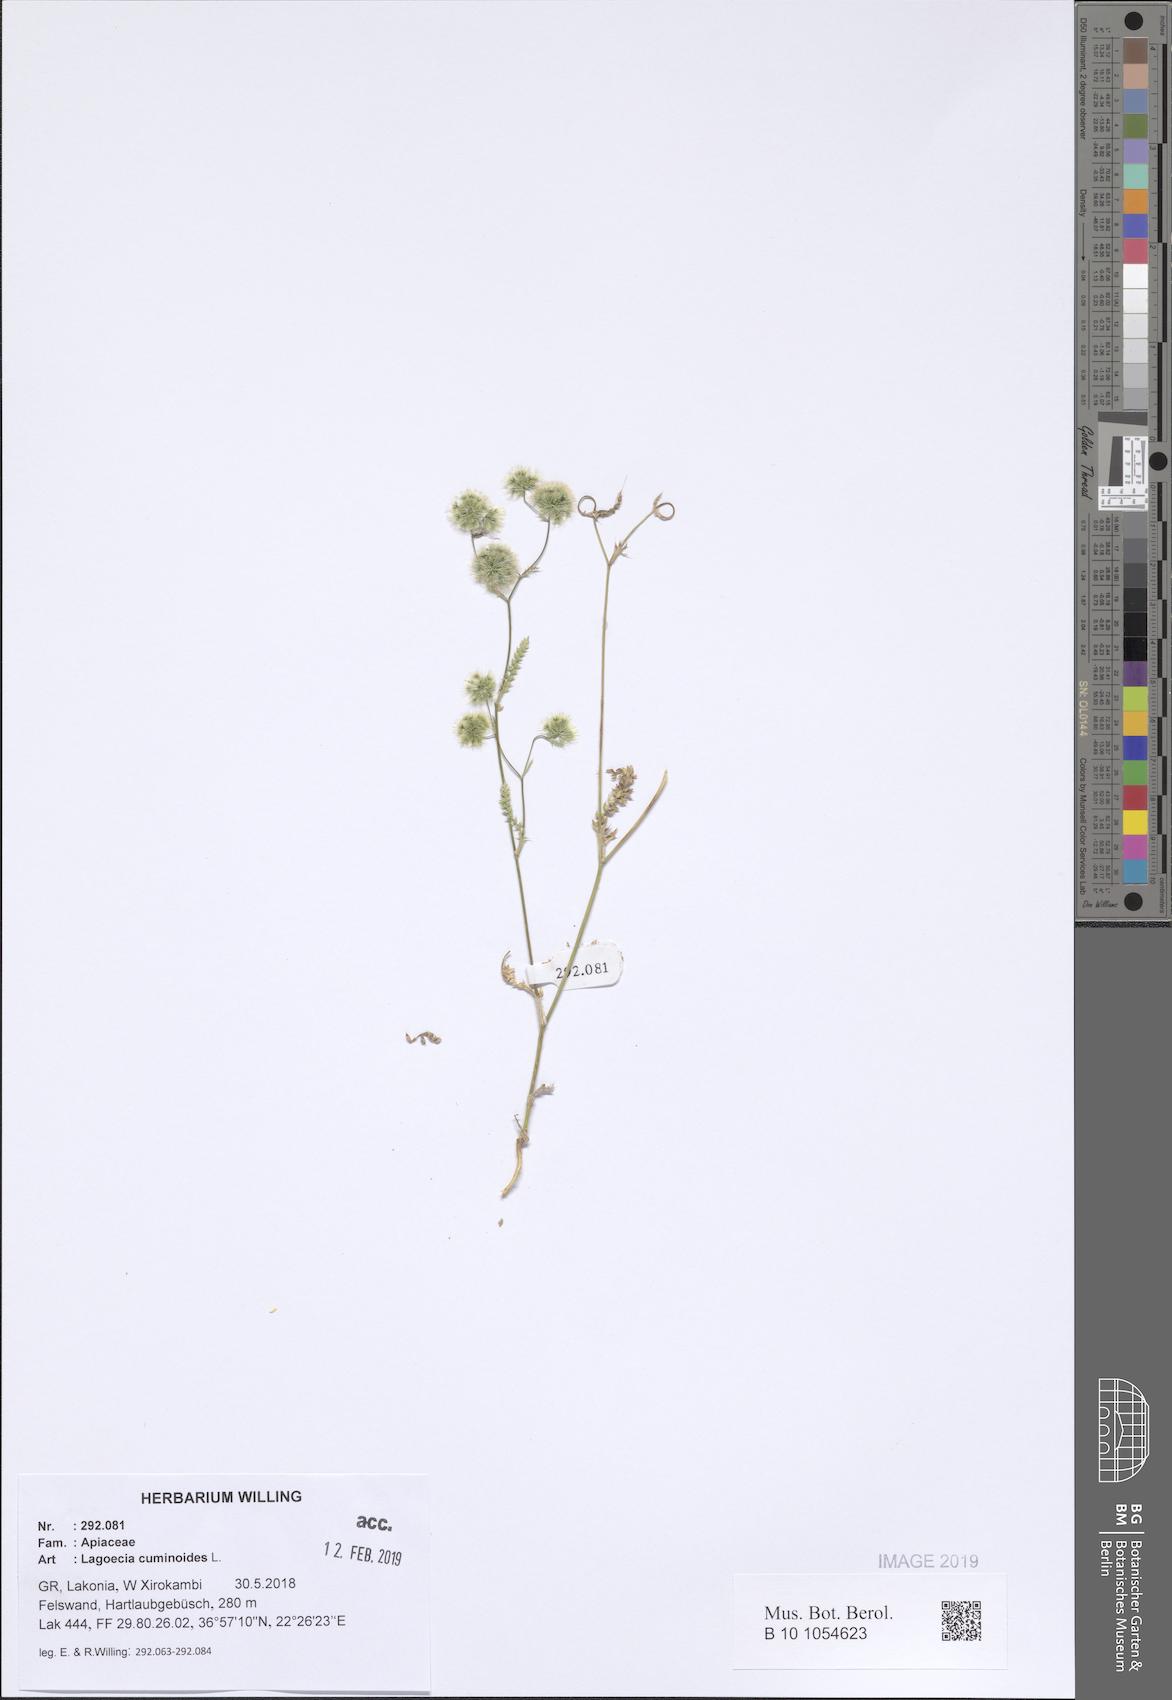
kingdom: Plantae
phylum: Tracheophyta
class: Magnoliopsida
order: Apiales
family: Apiaceae
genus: Lagoecia
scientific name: Lagoecia cuminoides
